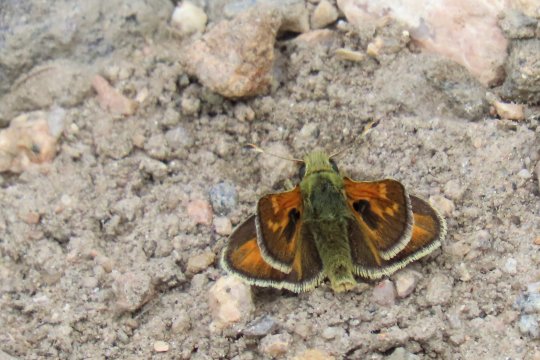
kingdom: Animalia
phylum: Arthropoda
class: Insecta
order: Lepidoptera
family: Hesperiidae
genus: Hesperia
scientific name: Hesperia comma
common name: Western Branded Skipper
